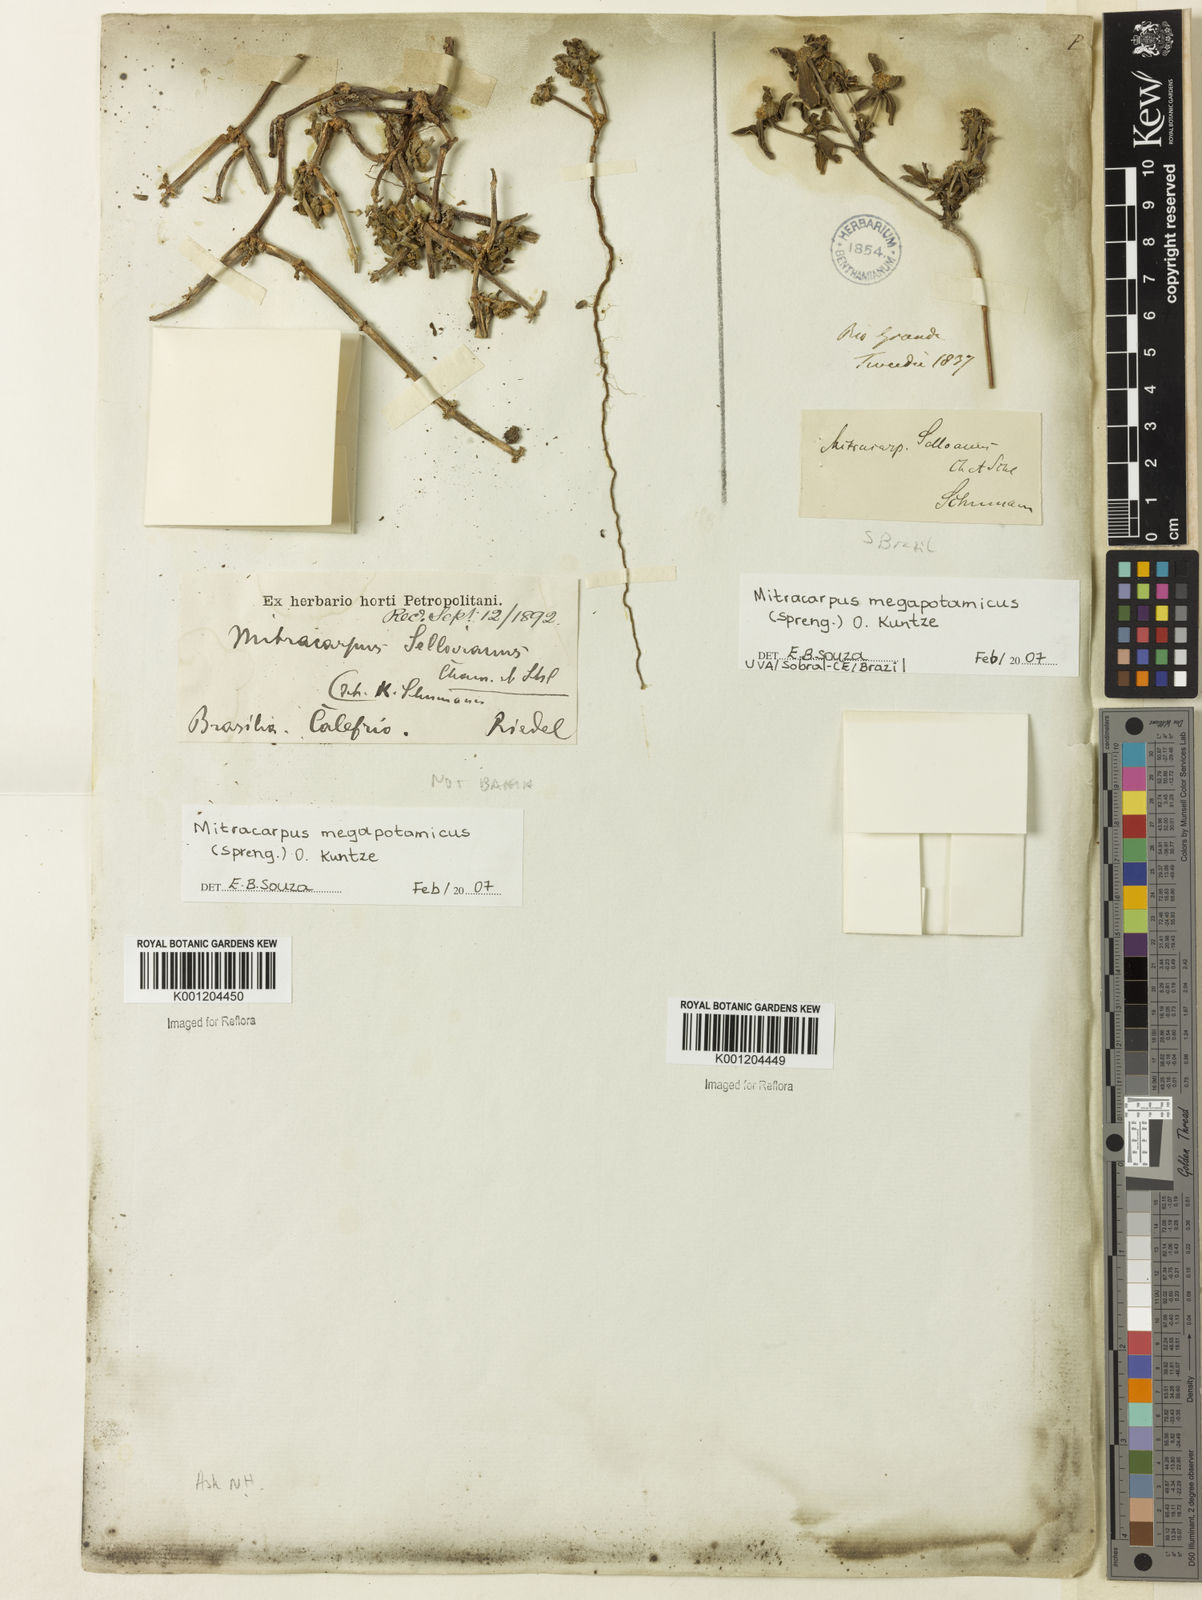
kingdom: Plantae
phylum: Tracheophyta
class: Magnoliopsida
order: Gentianales
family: Rubiaceae
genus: Mitracarpus
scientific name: Mitracarpus megapotamicus
